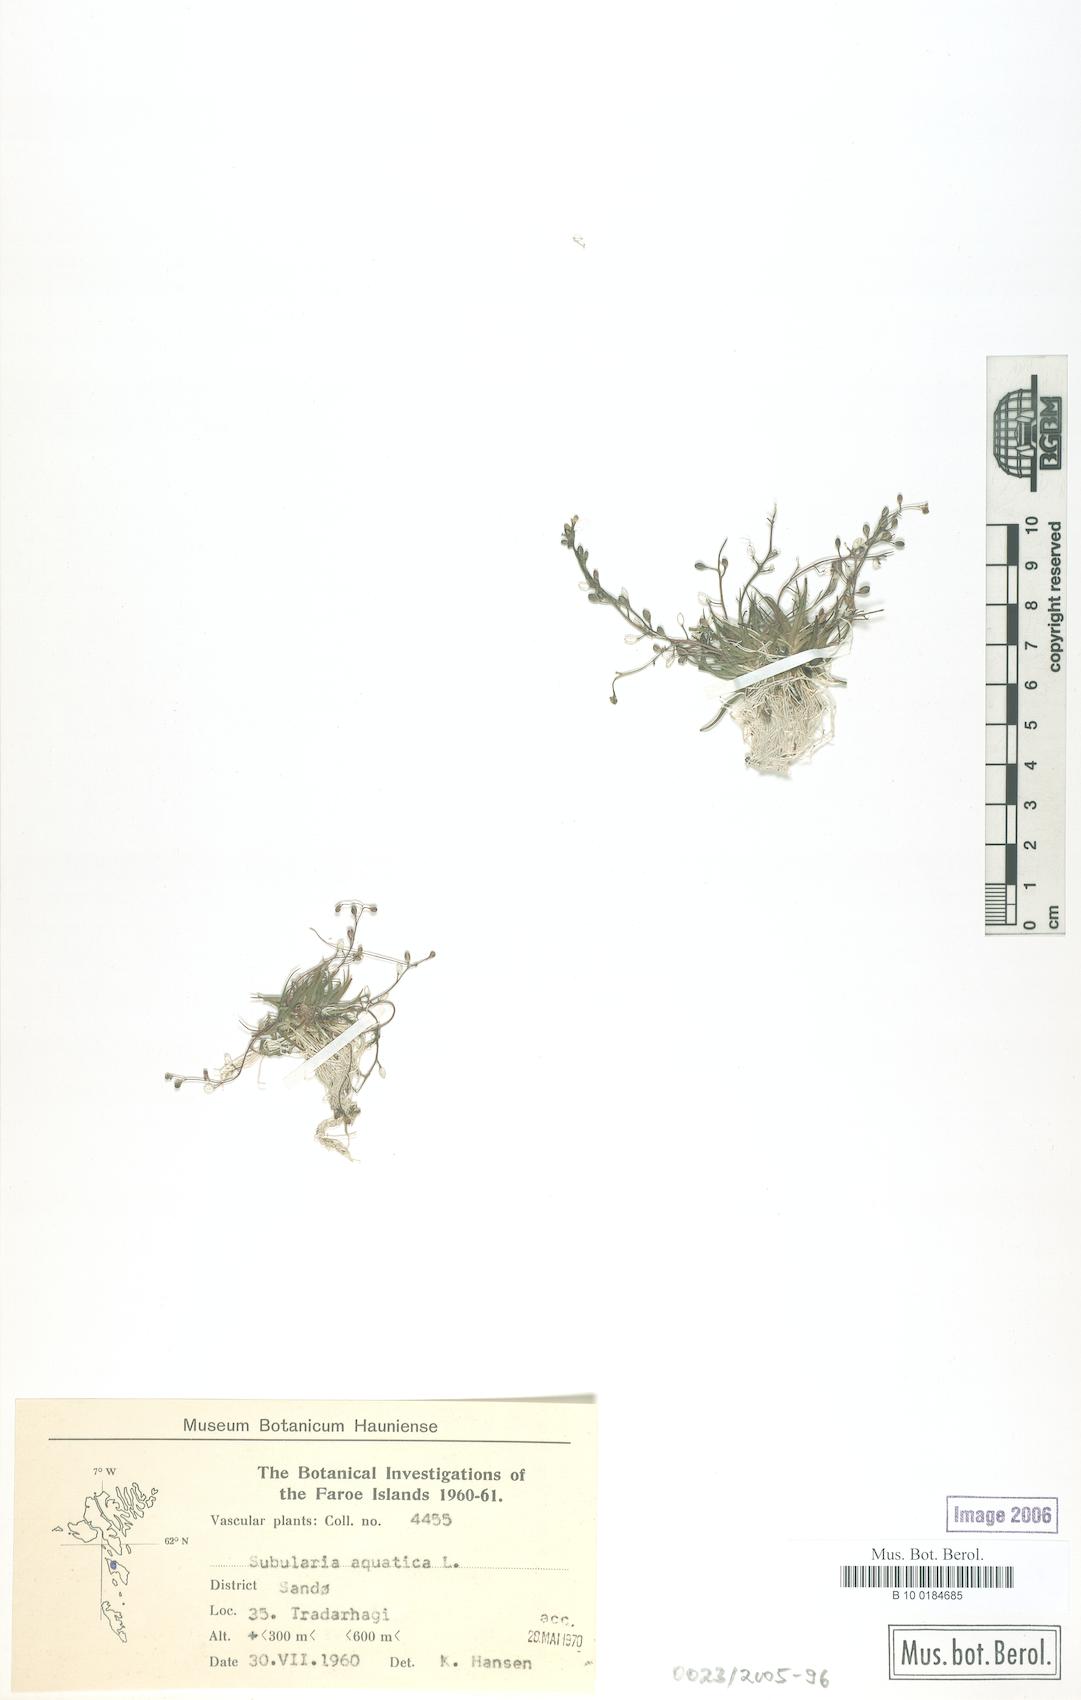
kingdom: Plantae
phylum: Tracheophyta
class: Magnoliopsida
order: Brassicales
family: Brassicaceae
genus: Subularia
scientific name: Subularia aquatica
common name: Awlwort
